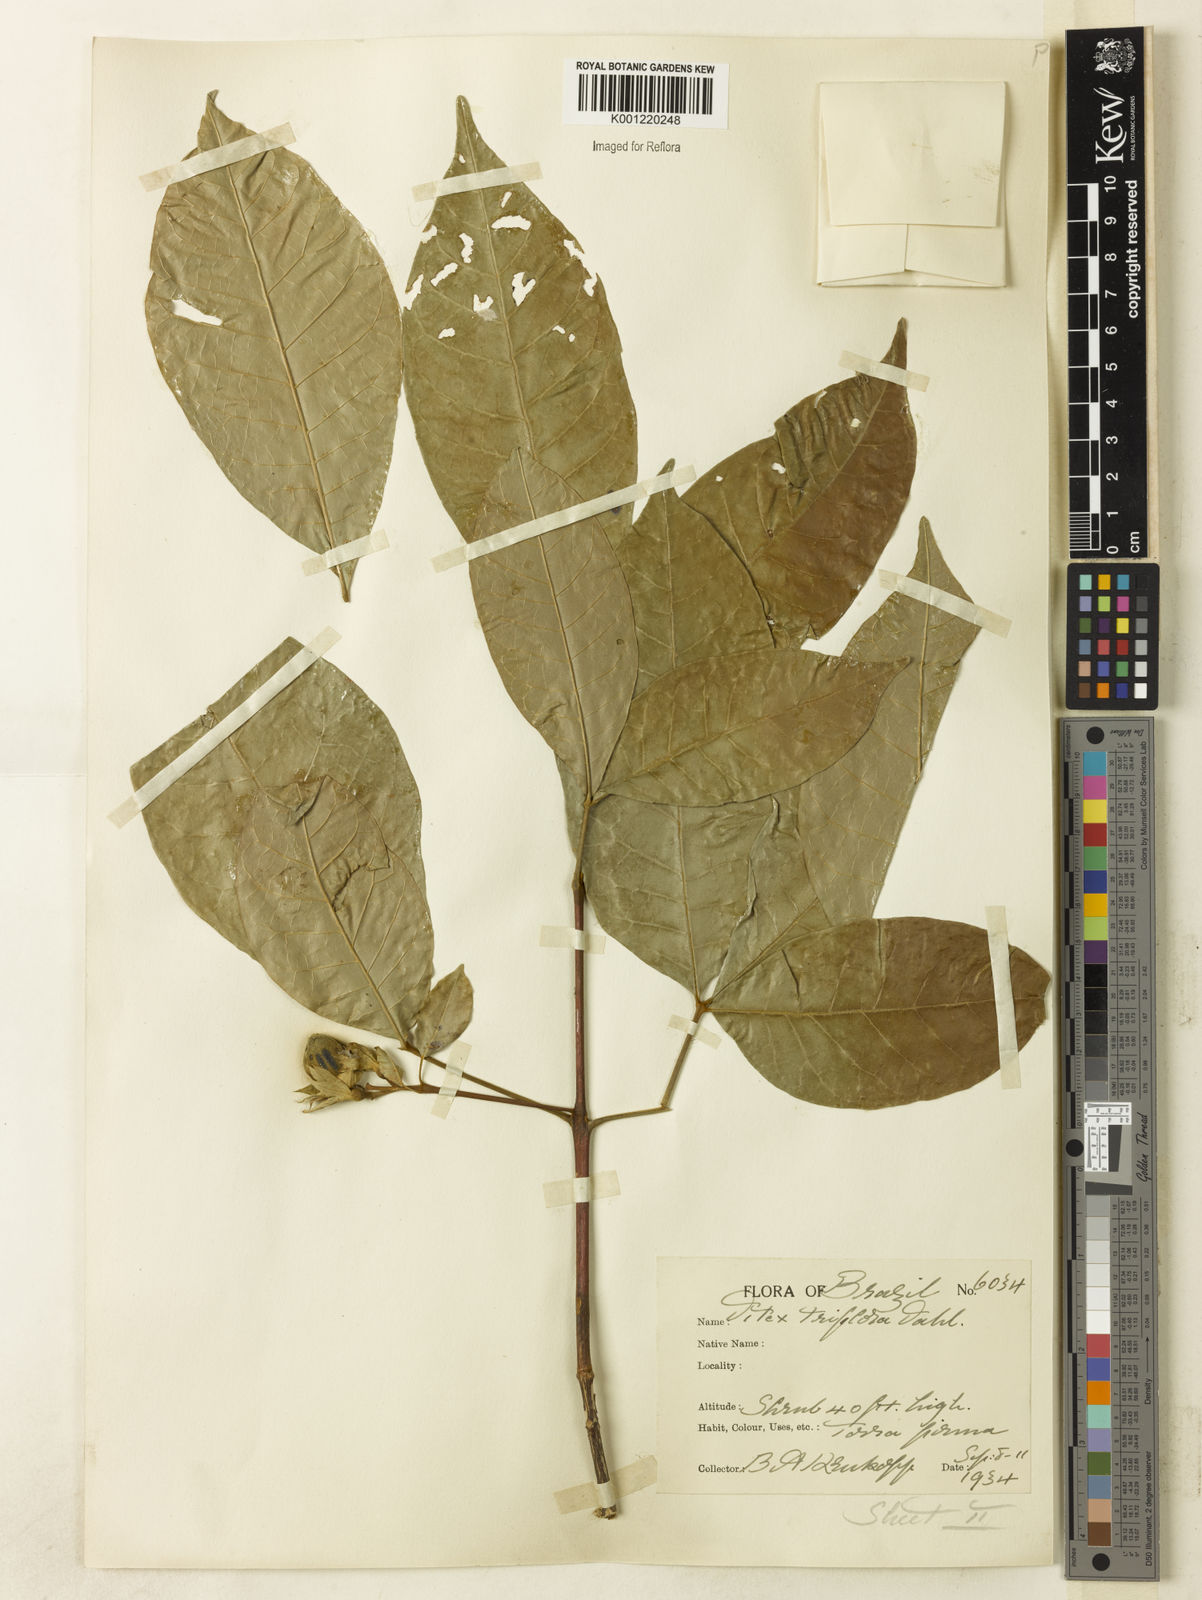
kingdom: Plantae
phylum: Tracheophyta
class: Magnoliopsida
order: Lamiales
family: Lamiaceae
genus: Vitex
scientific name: Vitex triflora
